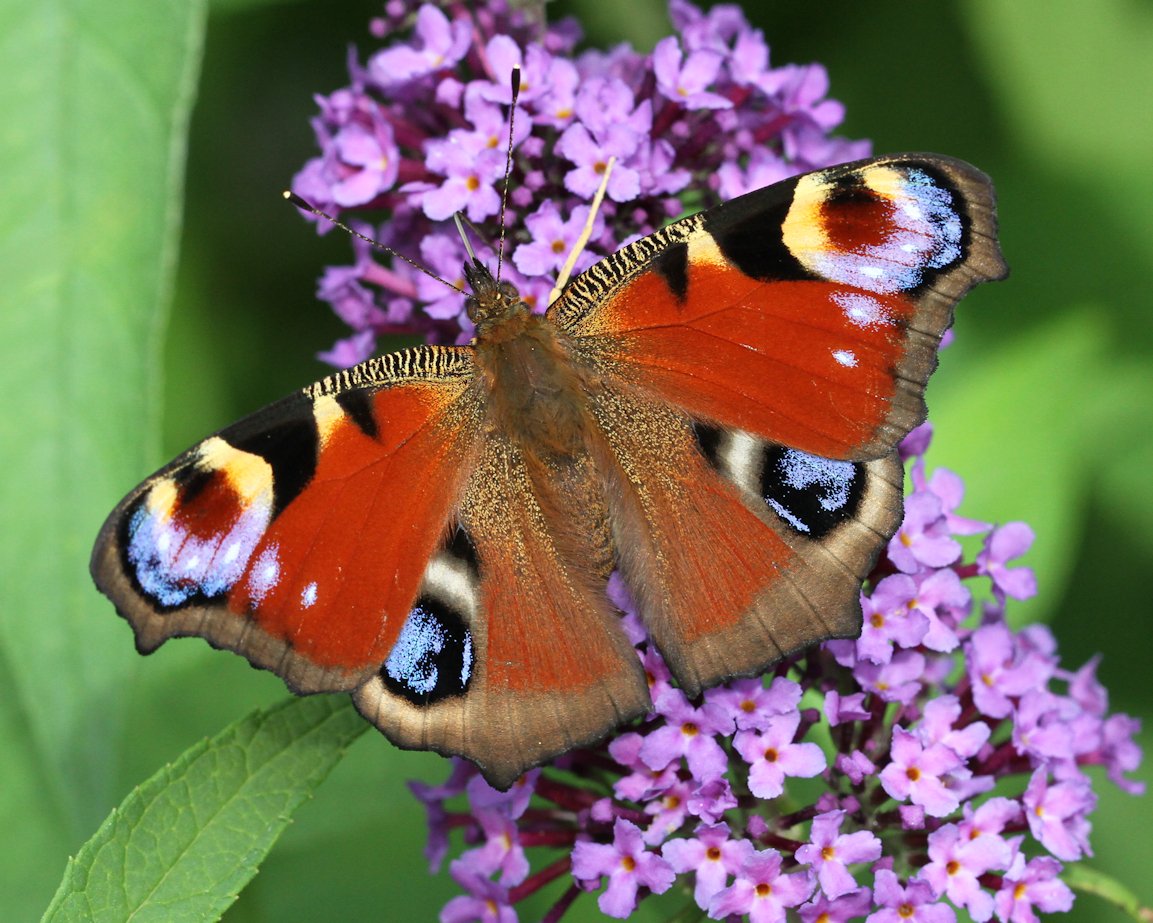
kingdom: Animalia
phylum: Arthropoda
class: Insecta
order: Lepidoptera
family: Nymphalidae
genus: Aglais
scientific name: Aglais io
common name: European Peacock
